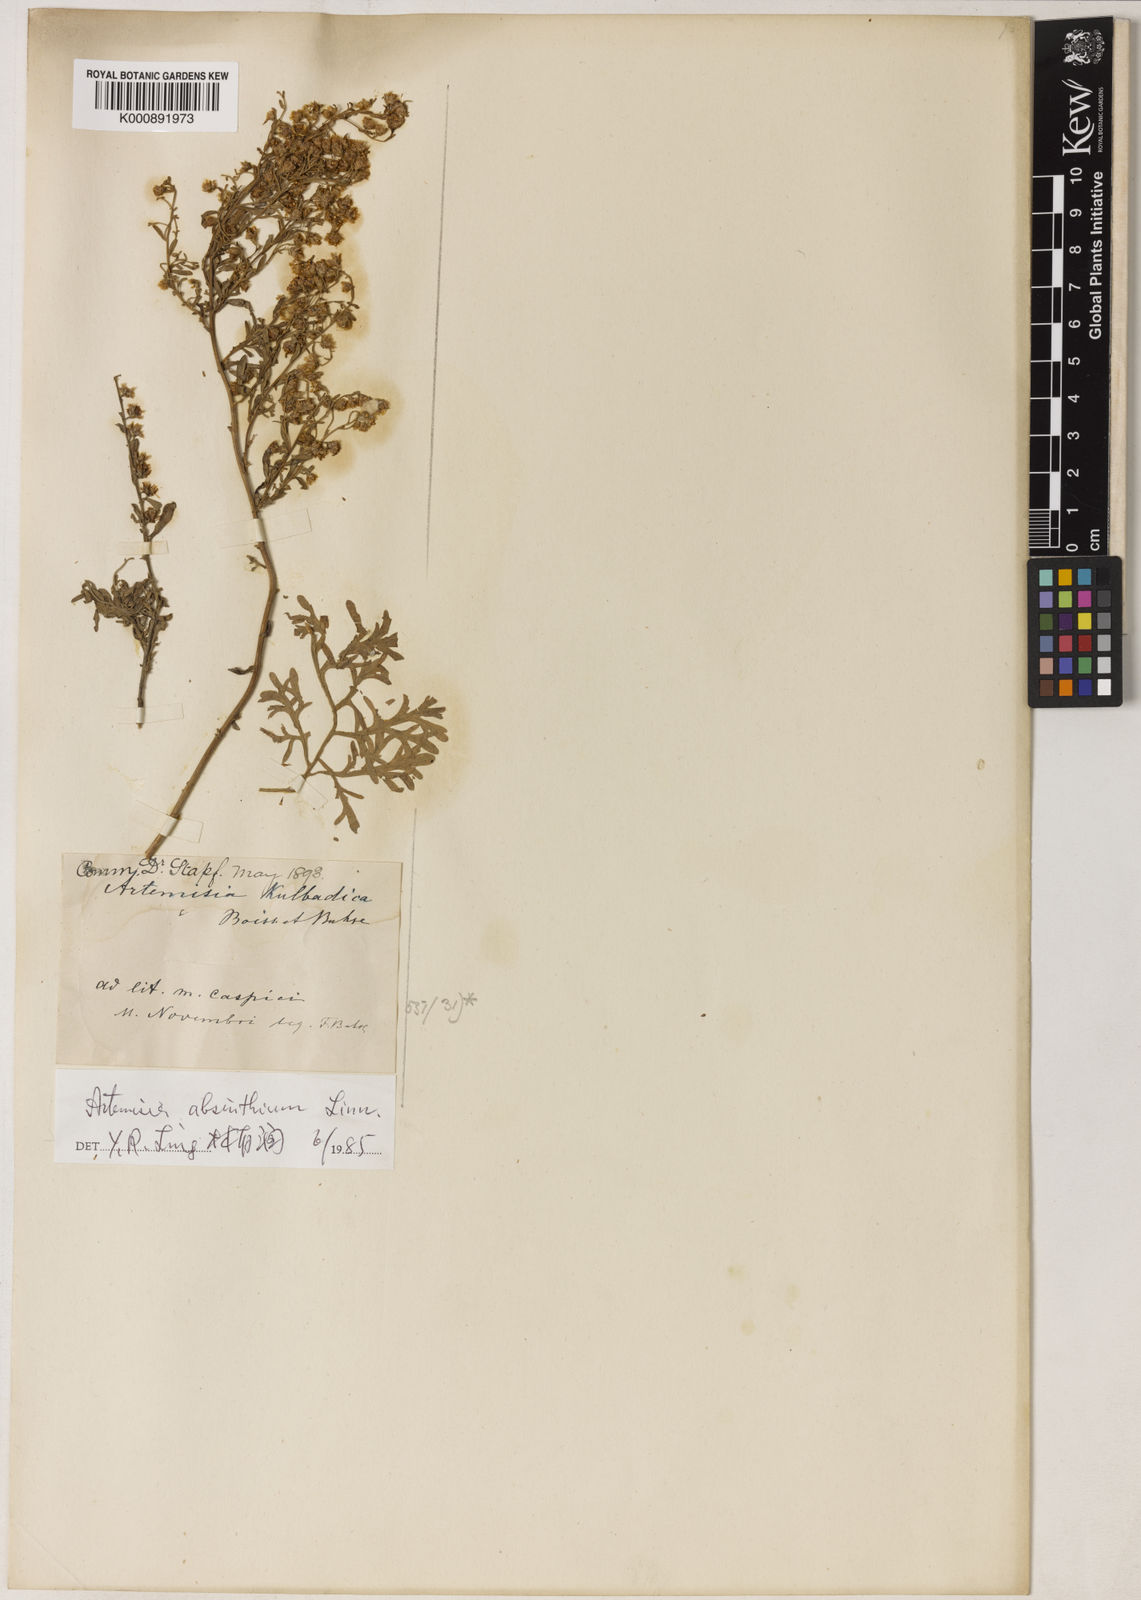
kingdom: Plantae
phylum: Tracheophyta
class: Magnoliopsida
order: Asterales
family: Asteraceae
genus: Artemisia
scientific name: Artemisia absinthium
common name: Wormwood
